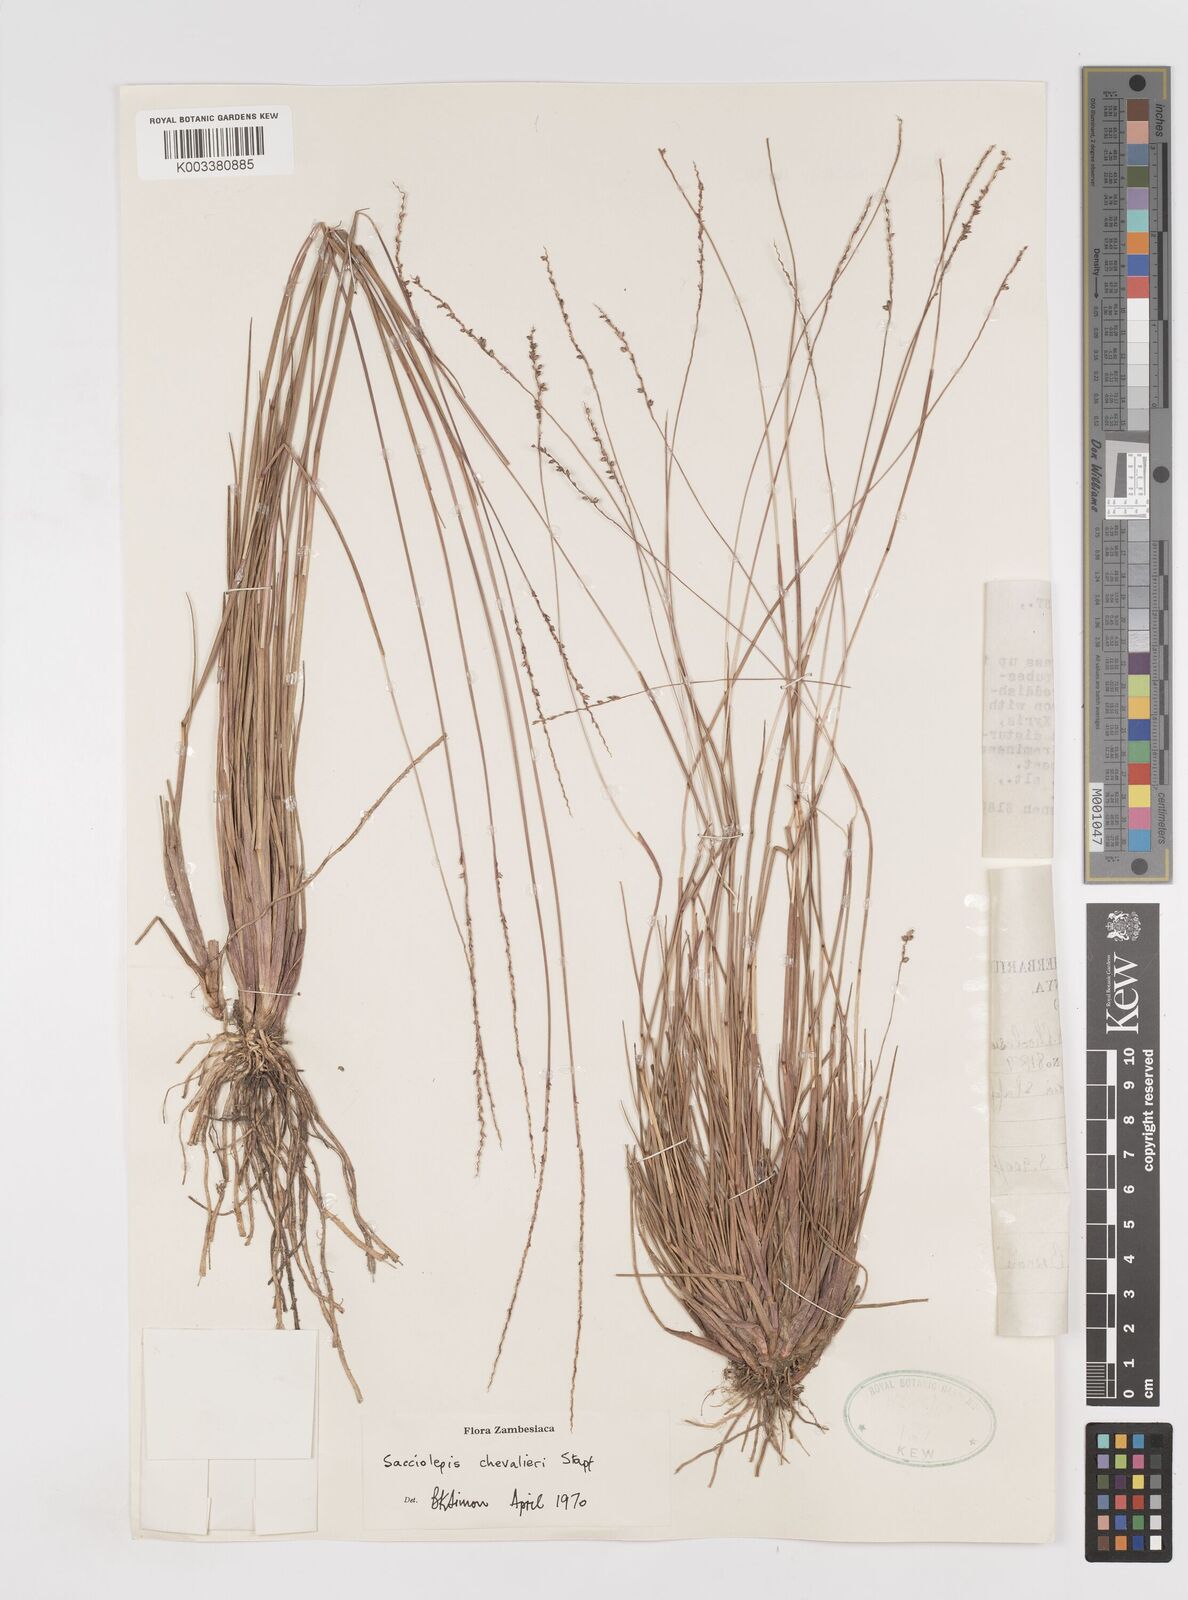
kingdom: Plantae
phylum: Tracheophyta
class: Liliopsida
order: Poales
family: Poaceae
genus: Sacciolepis
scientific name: Sacciolepis chevalieri
